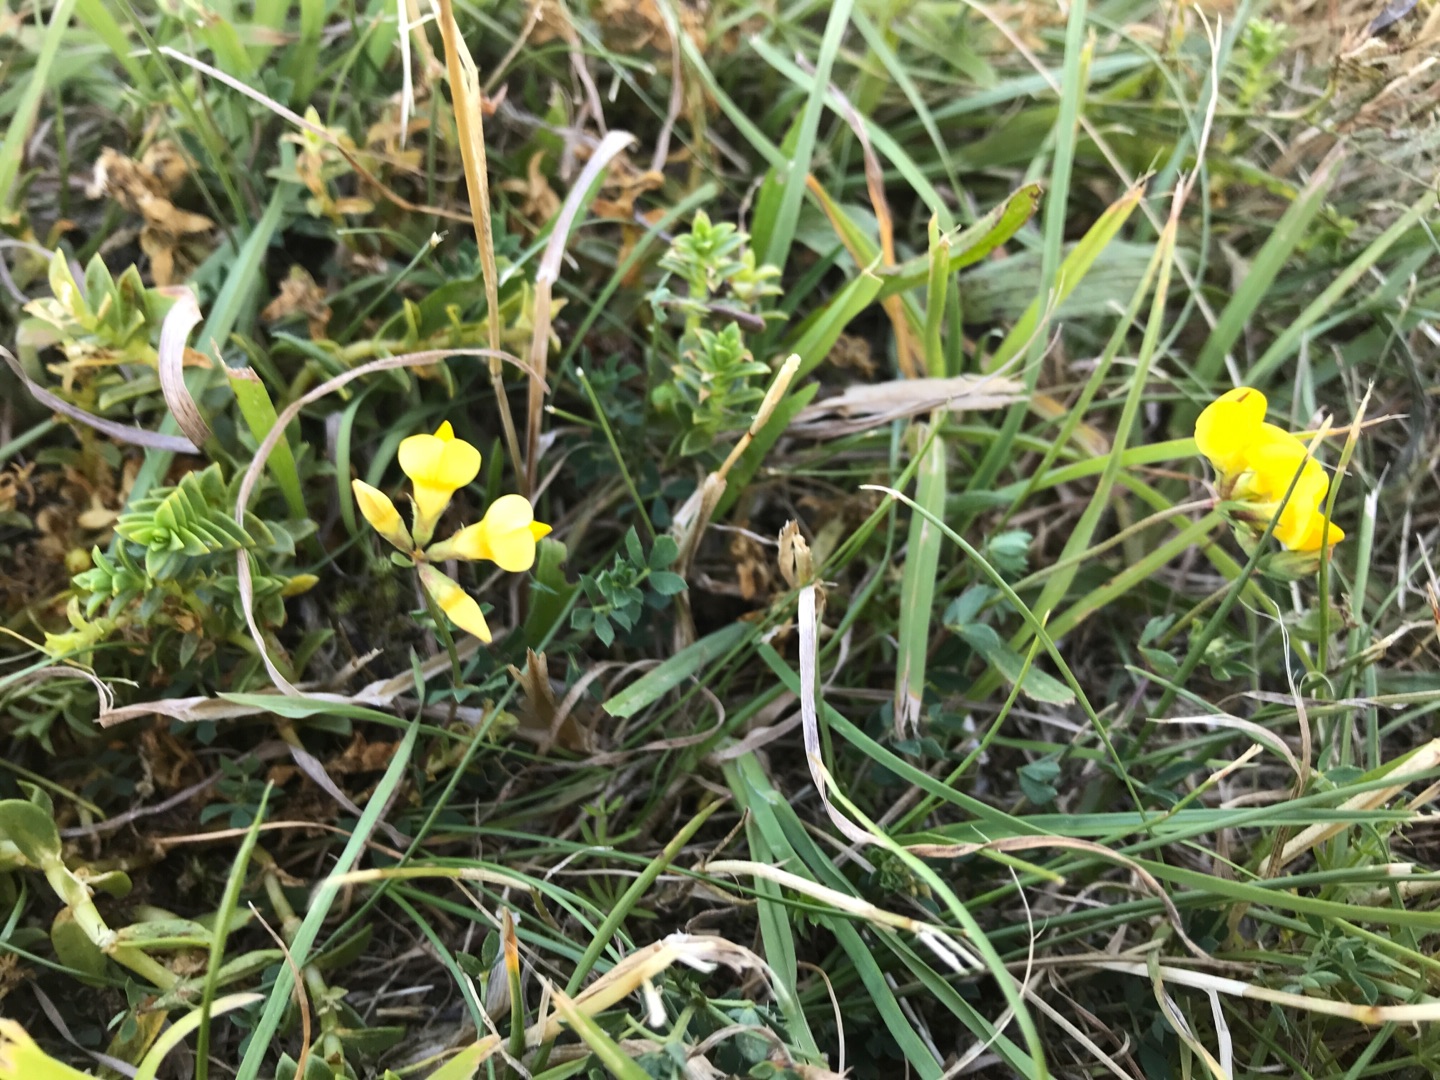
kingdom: Plantae
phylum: Tracheophyta
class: Magnoliopsida
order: Fabales
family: Fabaceae
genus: Lotus
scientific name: Lotus corniculatus
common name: Almindelig kællingetand
